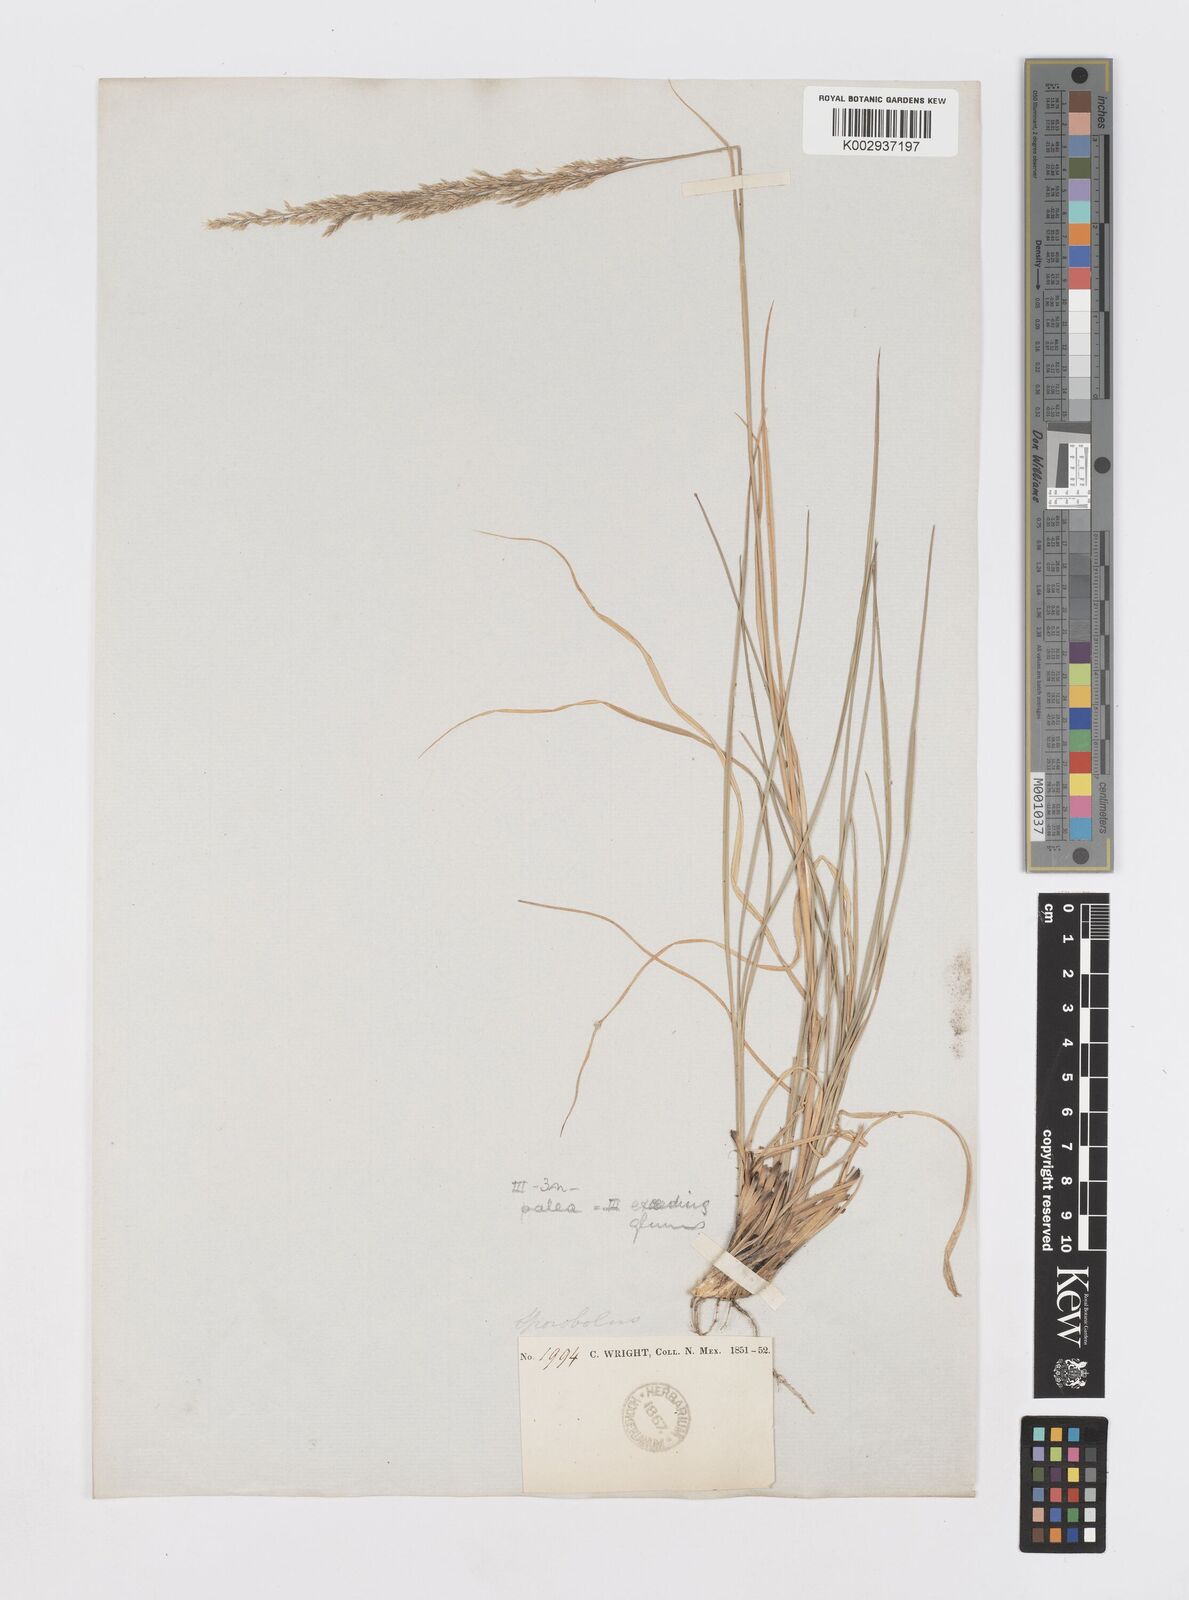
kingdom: Plantae
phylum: Tracheophyta
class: Liliopsida
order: Poales
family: Poaceae
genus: Sporobolus
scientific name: Sporobolus compositus
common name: Rough dropseed
